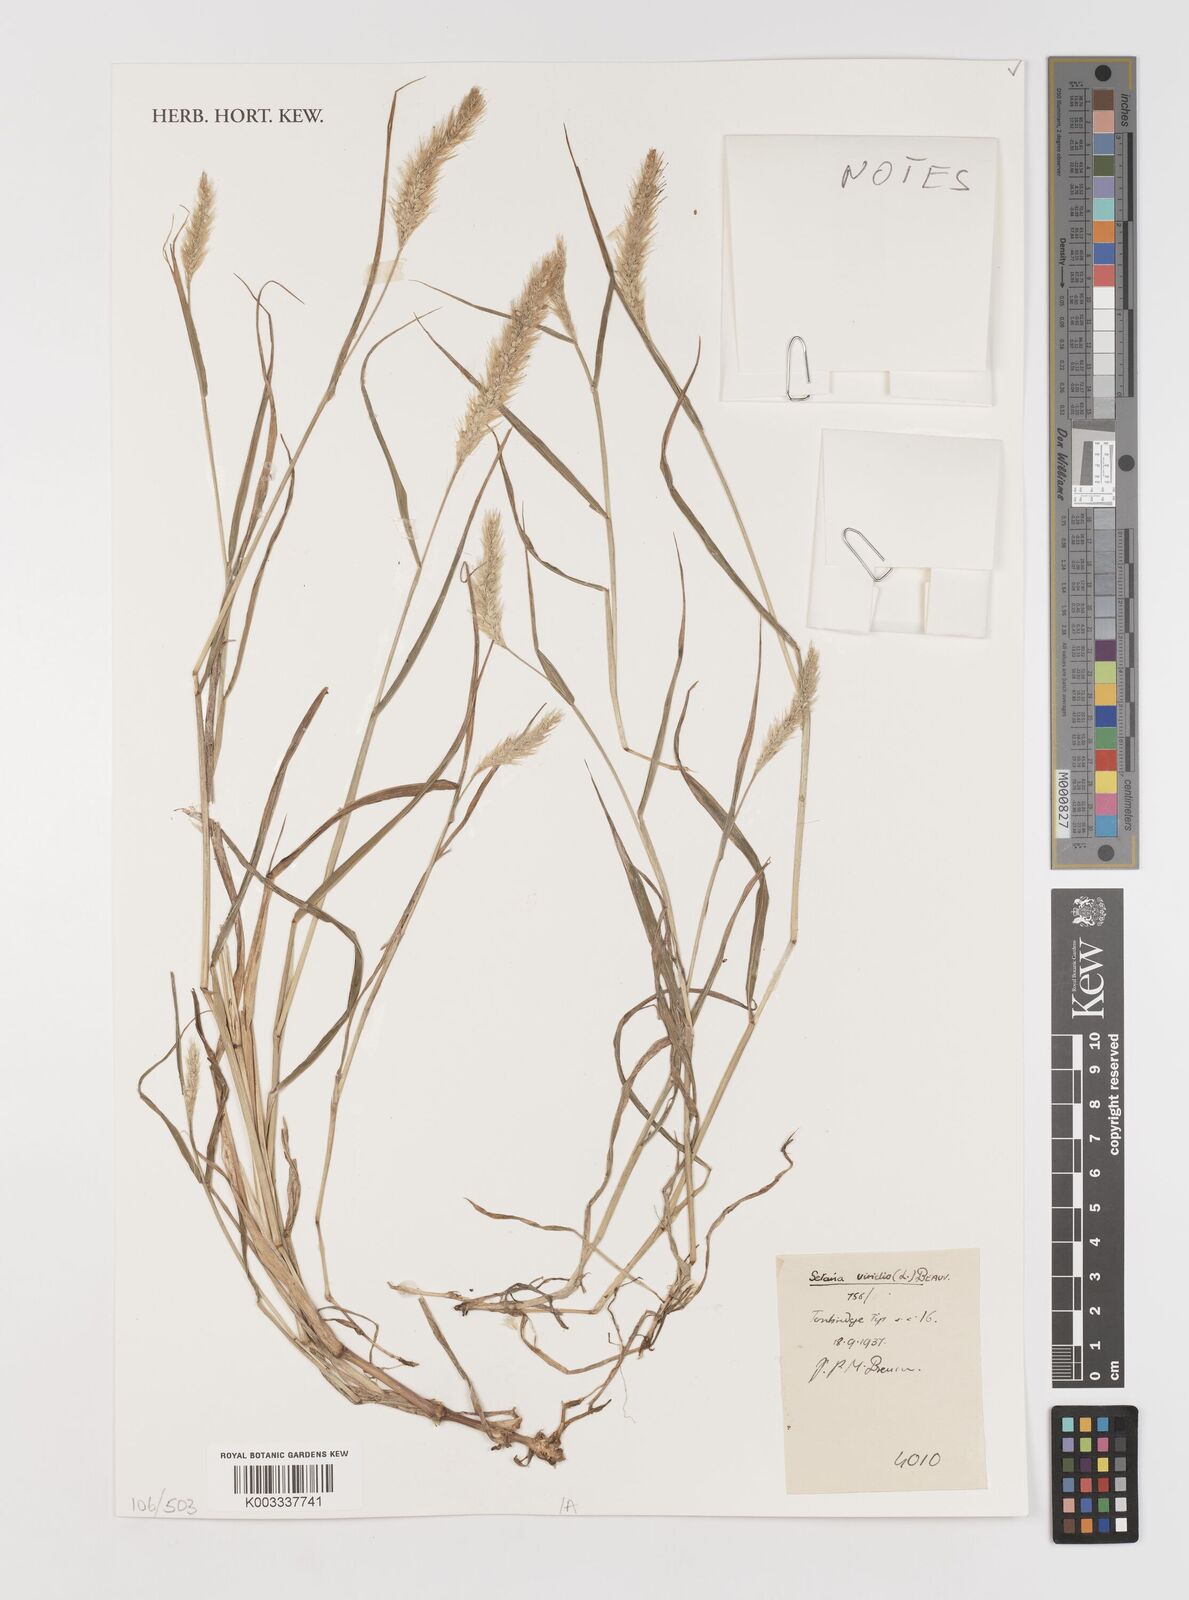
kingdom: Plantae
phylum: Tracheophyta
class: Liliopsida
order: Poales
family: Poaceae
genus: Setaria
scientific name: Setaria viridis
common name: Green bristlegrass
